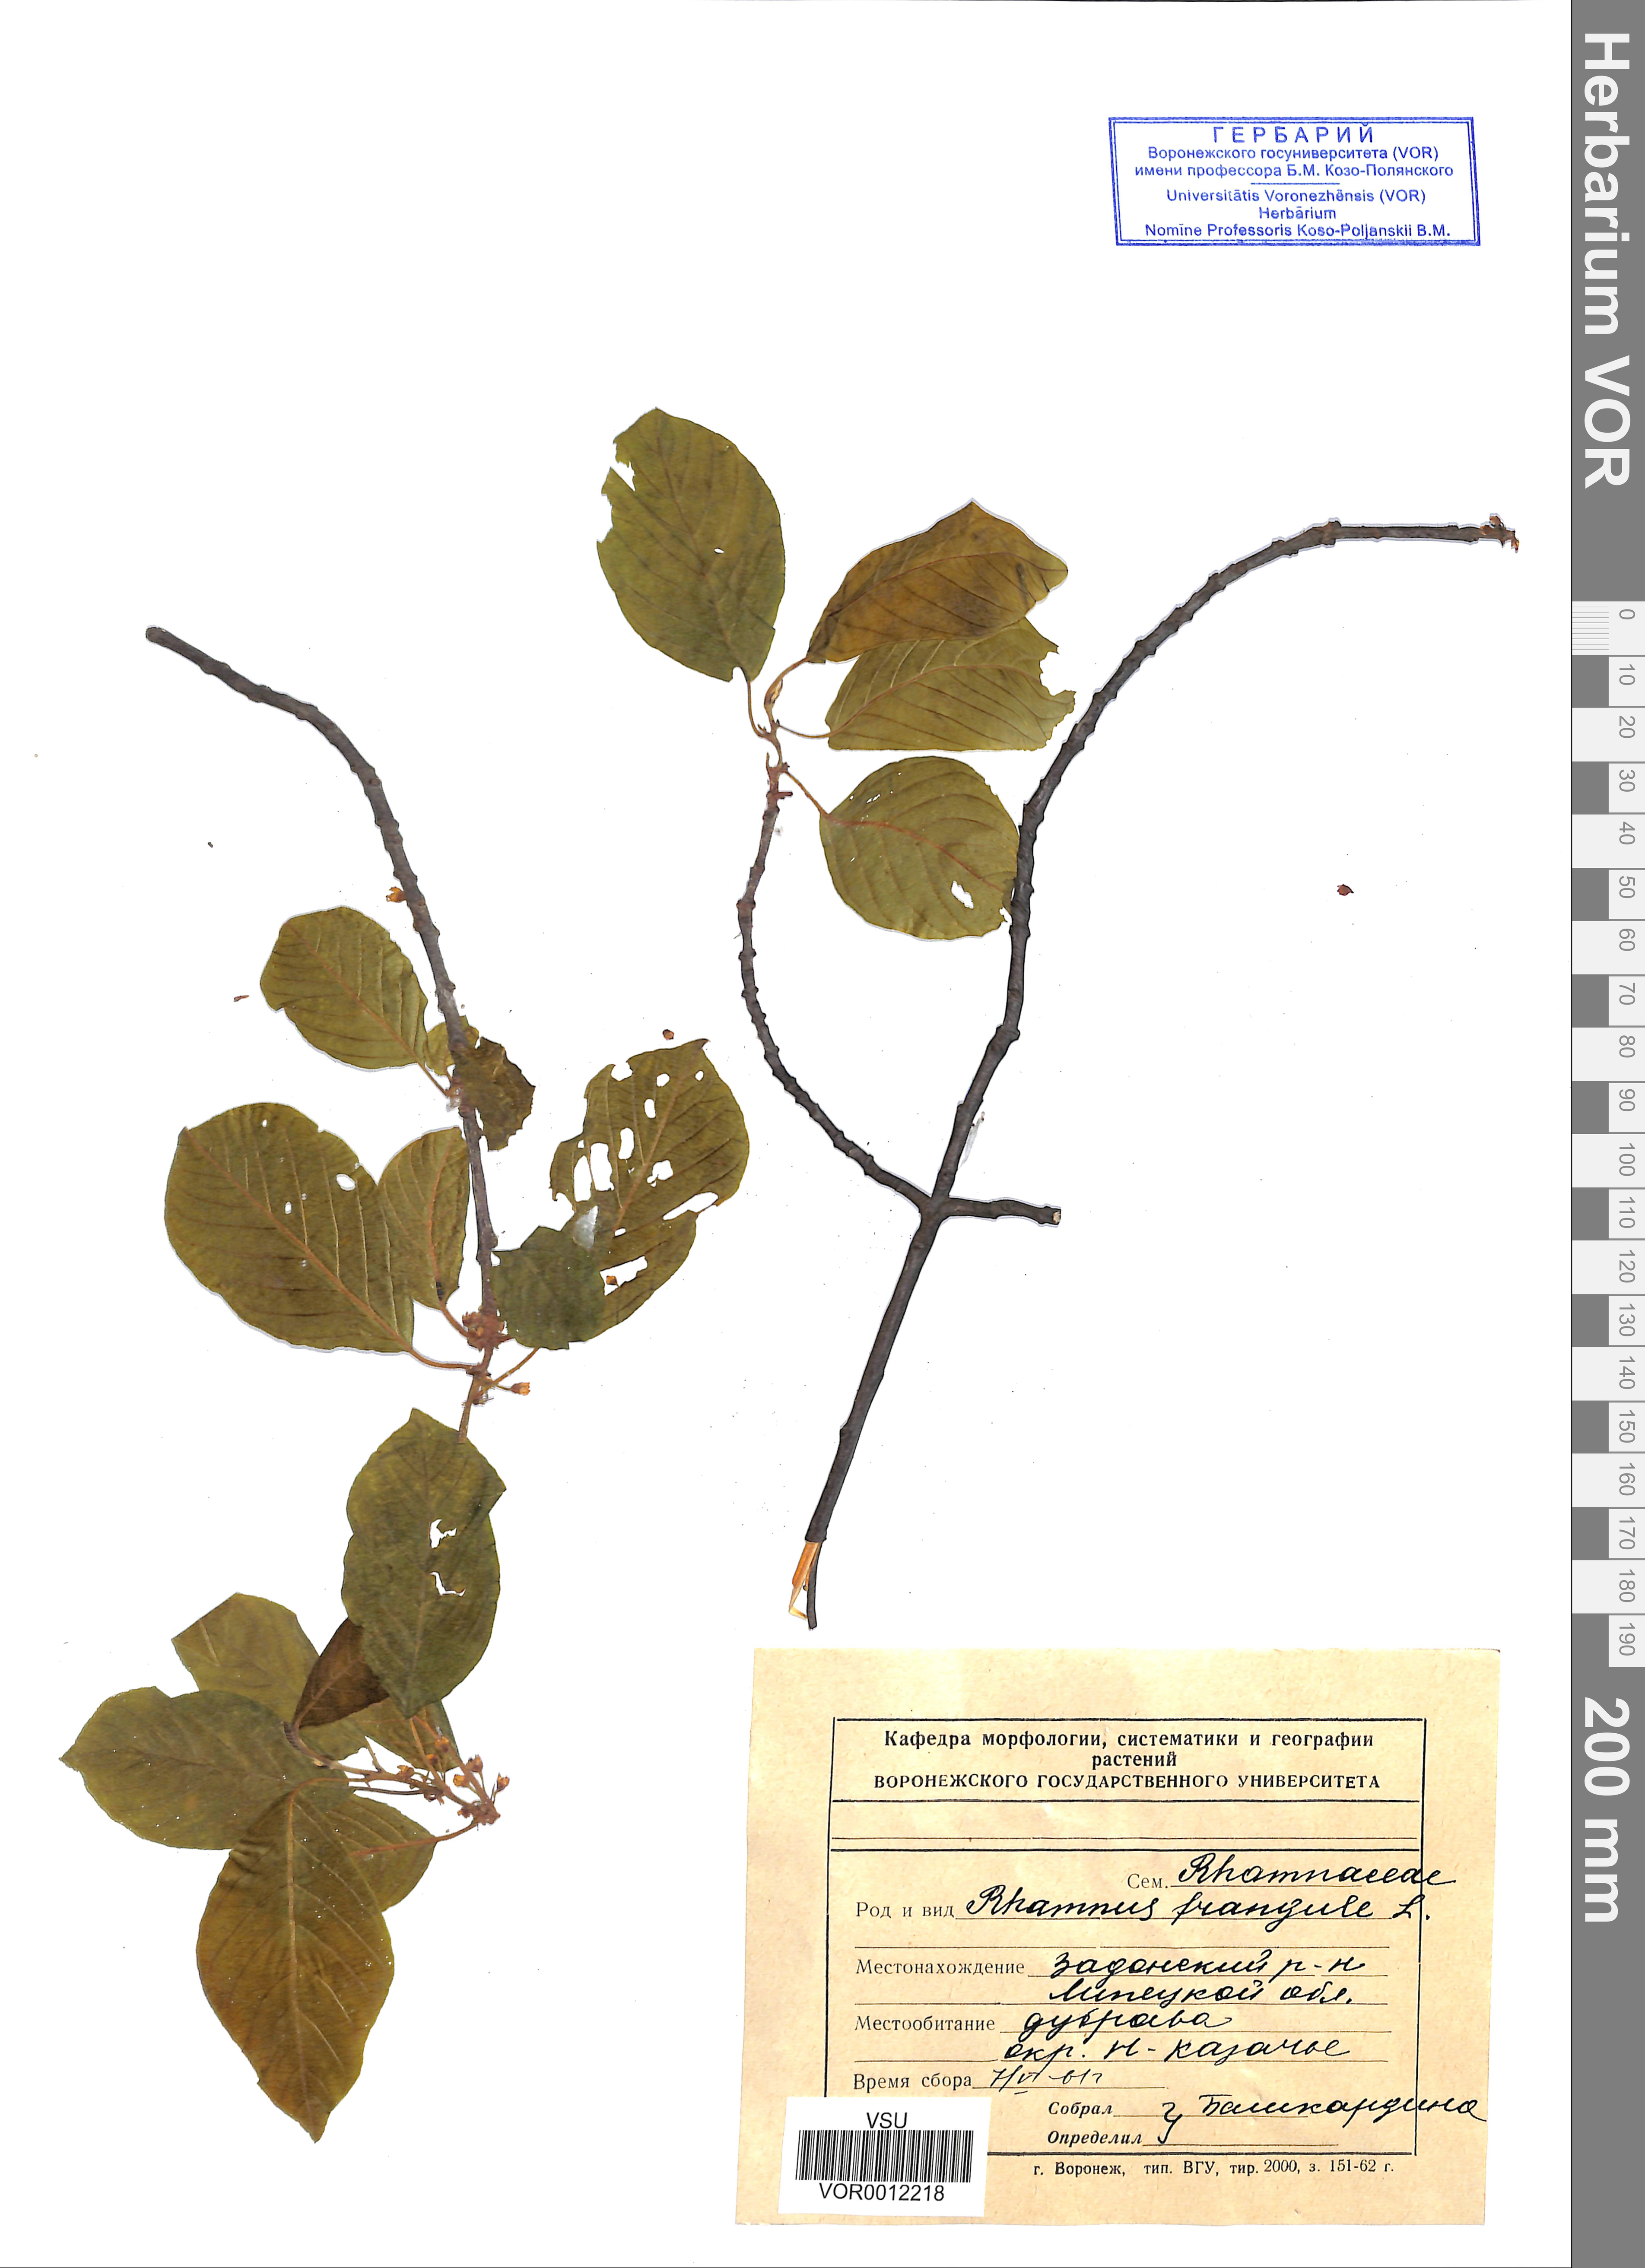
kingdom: Plantae
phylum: Tracheophyta
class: Magnoliopsida
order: Rosales
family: Rhamnaceae
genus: Frangula
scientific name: Frangula alnus
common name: Alder buckthorn
